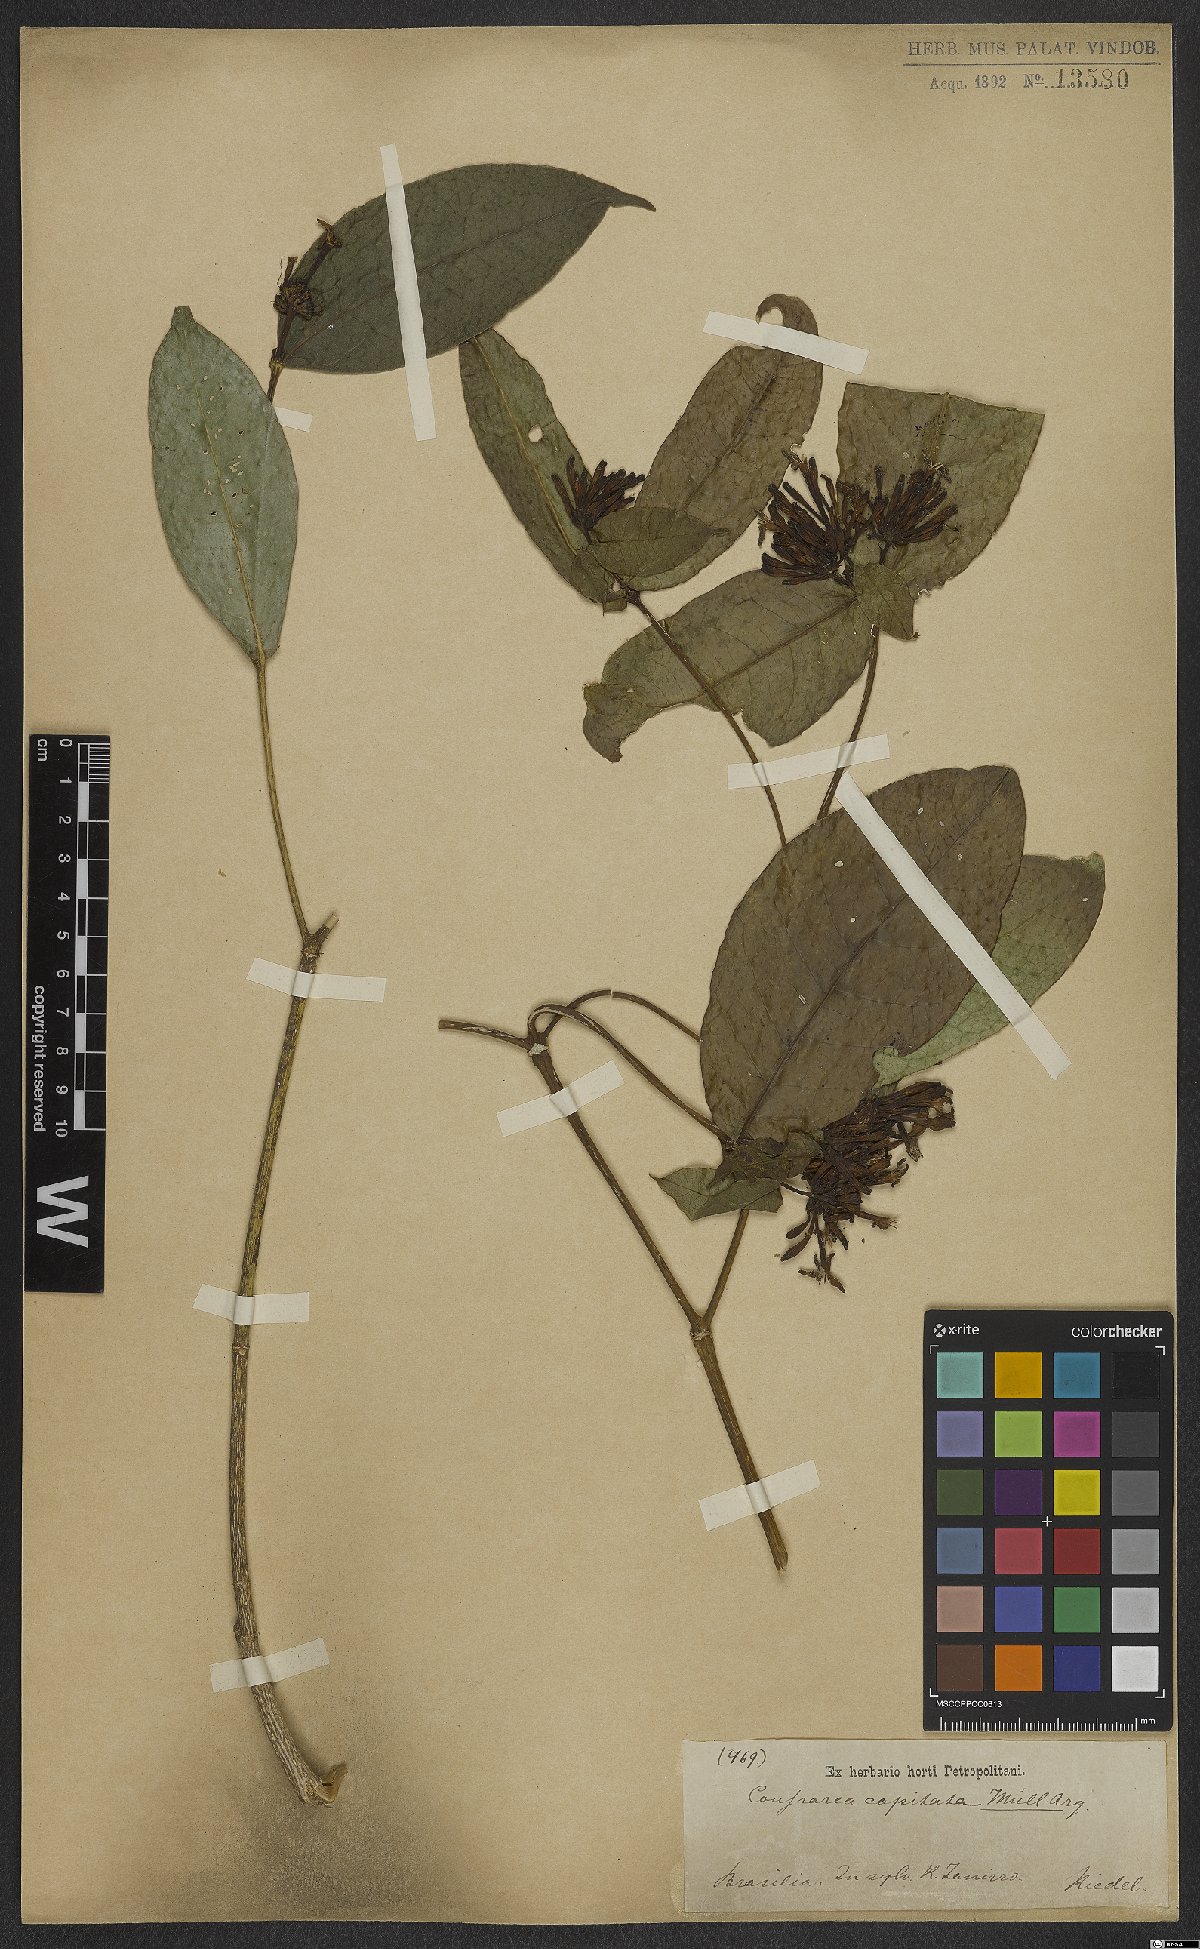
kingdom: Plantae
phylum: Tracheophyta
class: Magnoliopsida
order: Gentianales
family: Rubiaceae
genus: Coussarea
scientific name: Coussarea capitata
